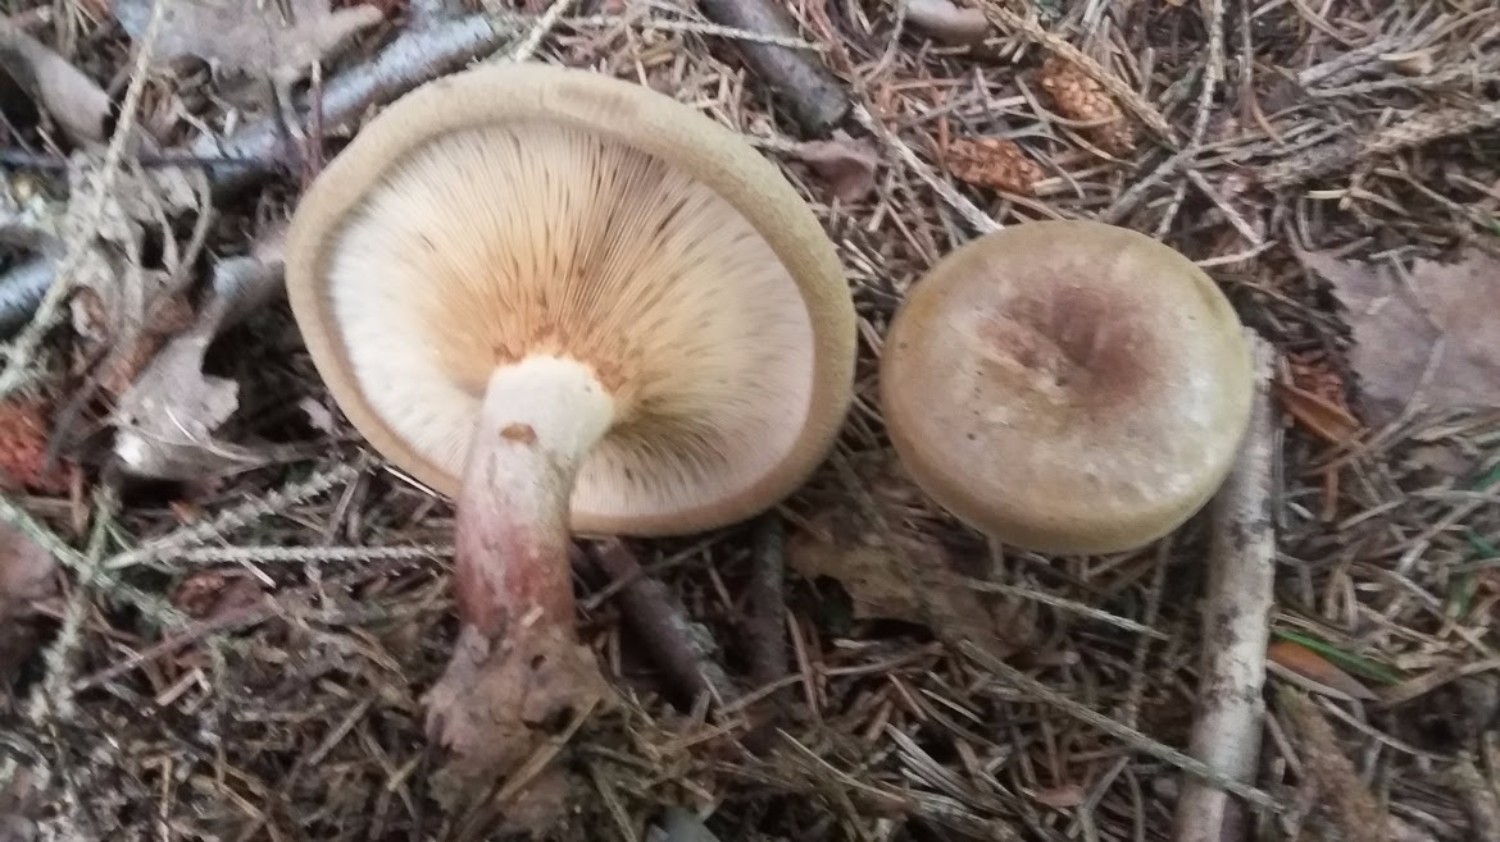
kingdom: Fungi
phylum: Basidiomycota
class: Agaricomycetes
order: Boletales
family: Paxillaceae
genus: Paxillus
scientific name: Paxillus involutus
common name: almindelig netbladhat
